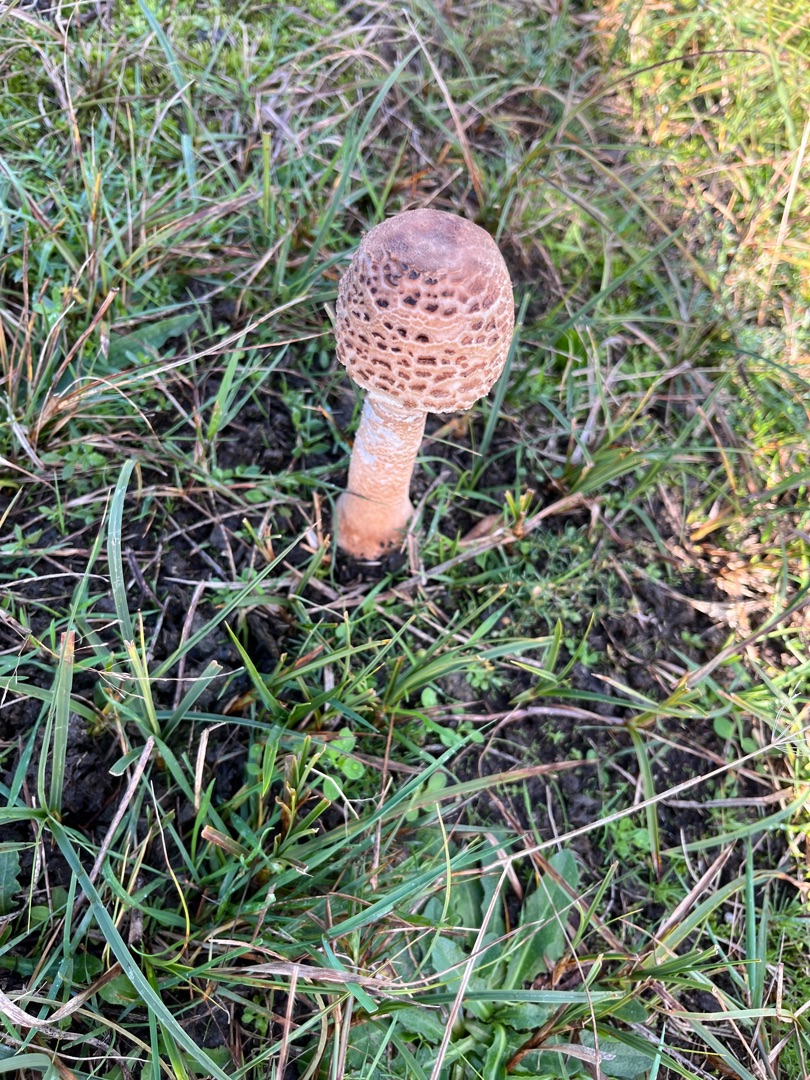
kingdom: Fungi
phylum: Basidiomycota
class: Agaricomycetes
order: Agaricales
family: Agaricaceae
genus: Macrolepiota
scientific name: Macrolepiota procera
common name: Stor kæmpeparasolhat
